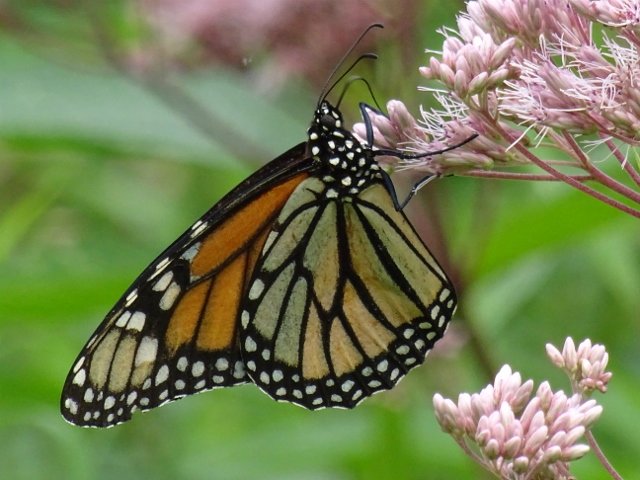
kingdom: Animalia
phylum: Arthropoda
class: Insecta
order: Lepidoptera
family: Nymphalidae
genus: Danaus
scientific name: Danaus plexippus
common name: Monarch
